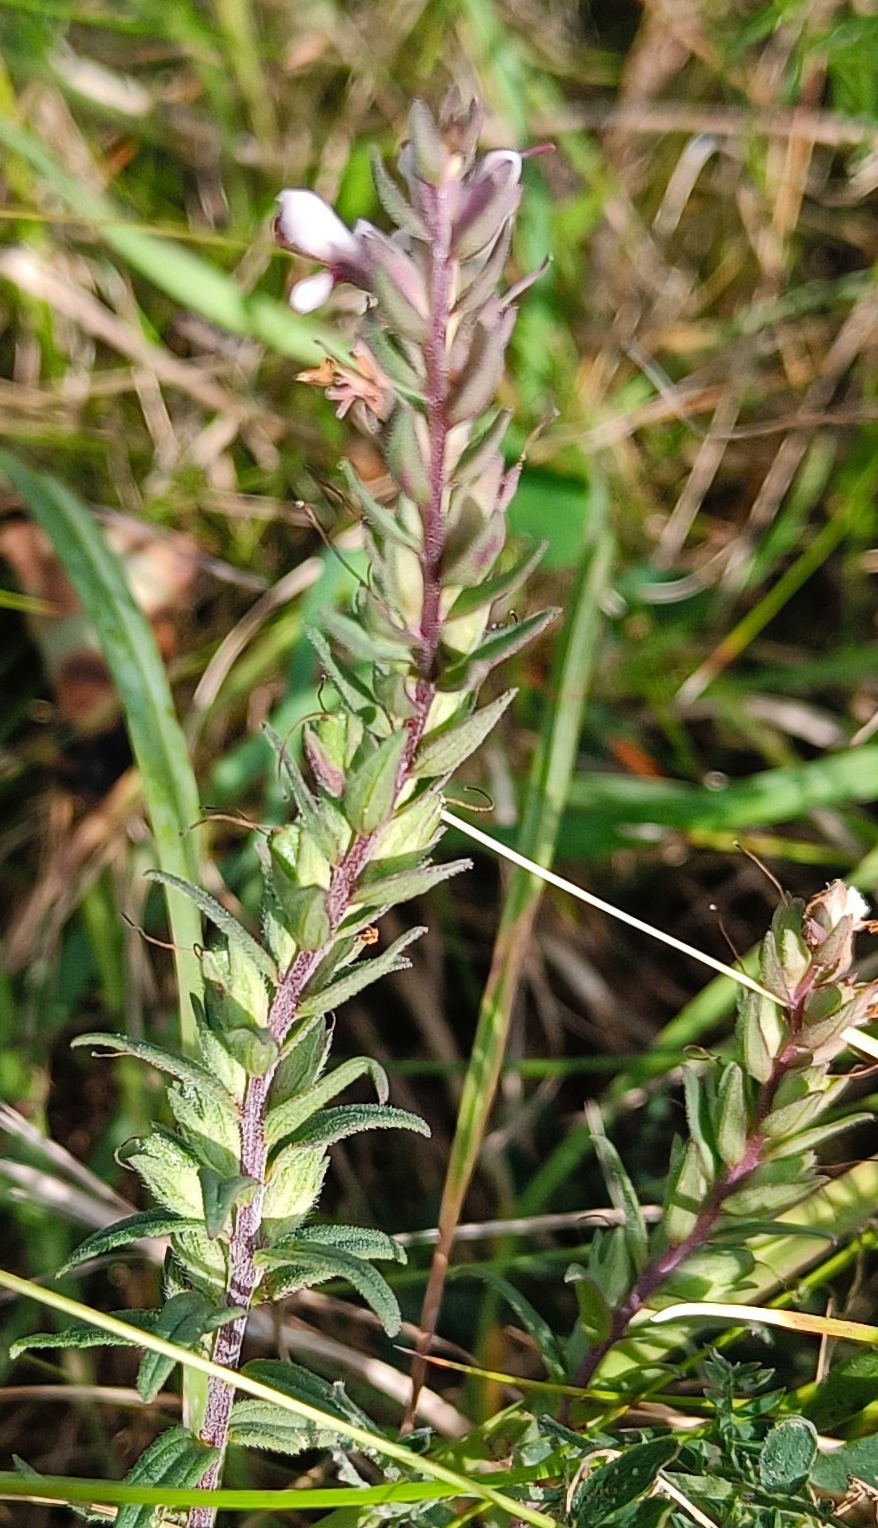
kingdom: Plantae
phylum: Tracheophyta
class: Magnoliopsida
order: Lamiales
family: Orobanchaceae
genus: Odontites
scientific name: Odontites vulgaris
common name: Høst-rødtop
